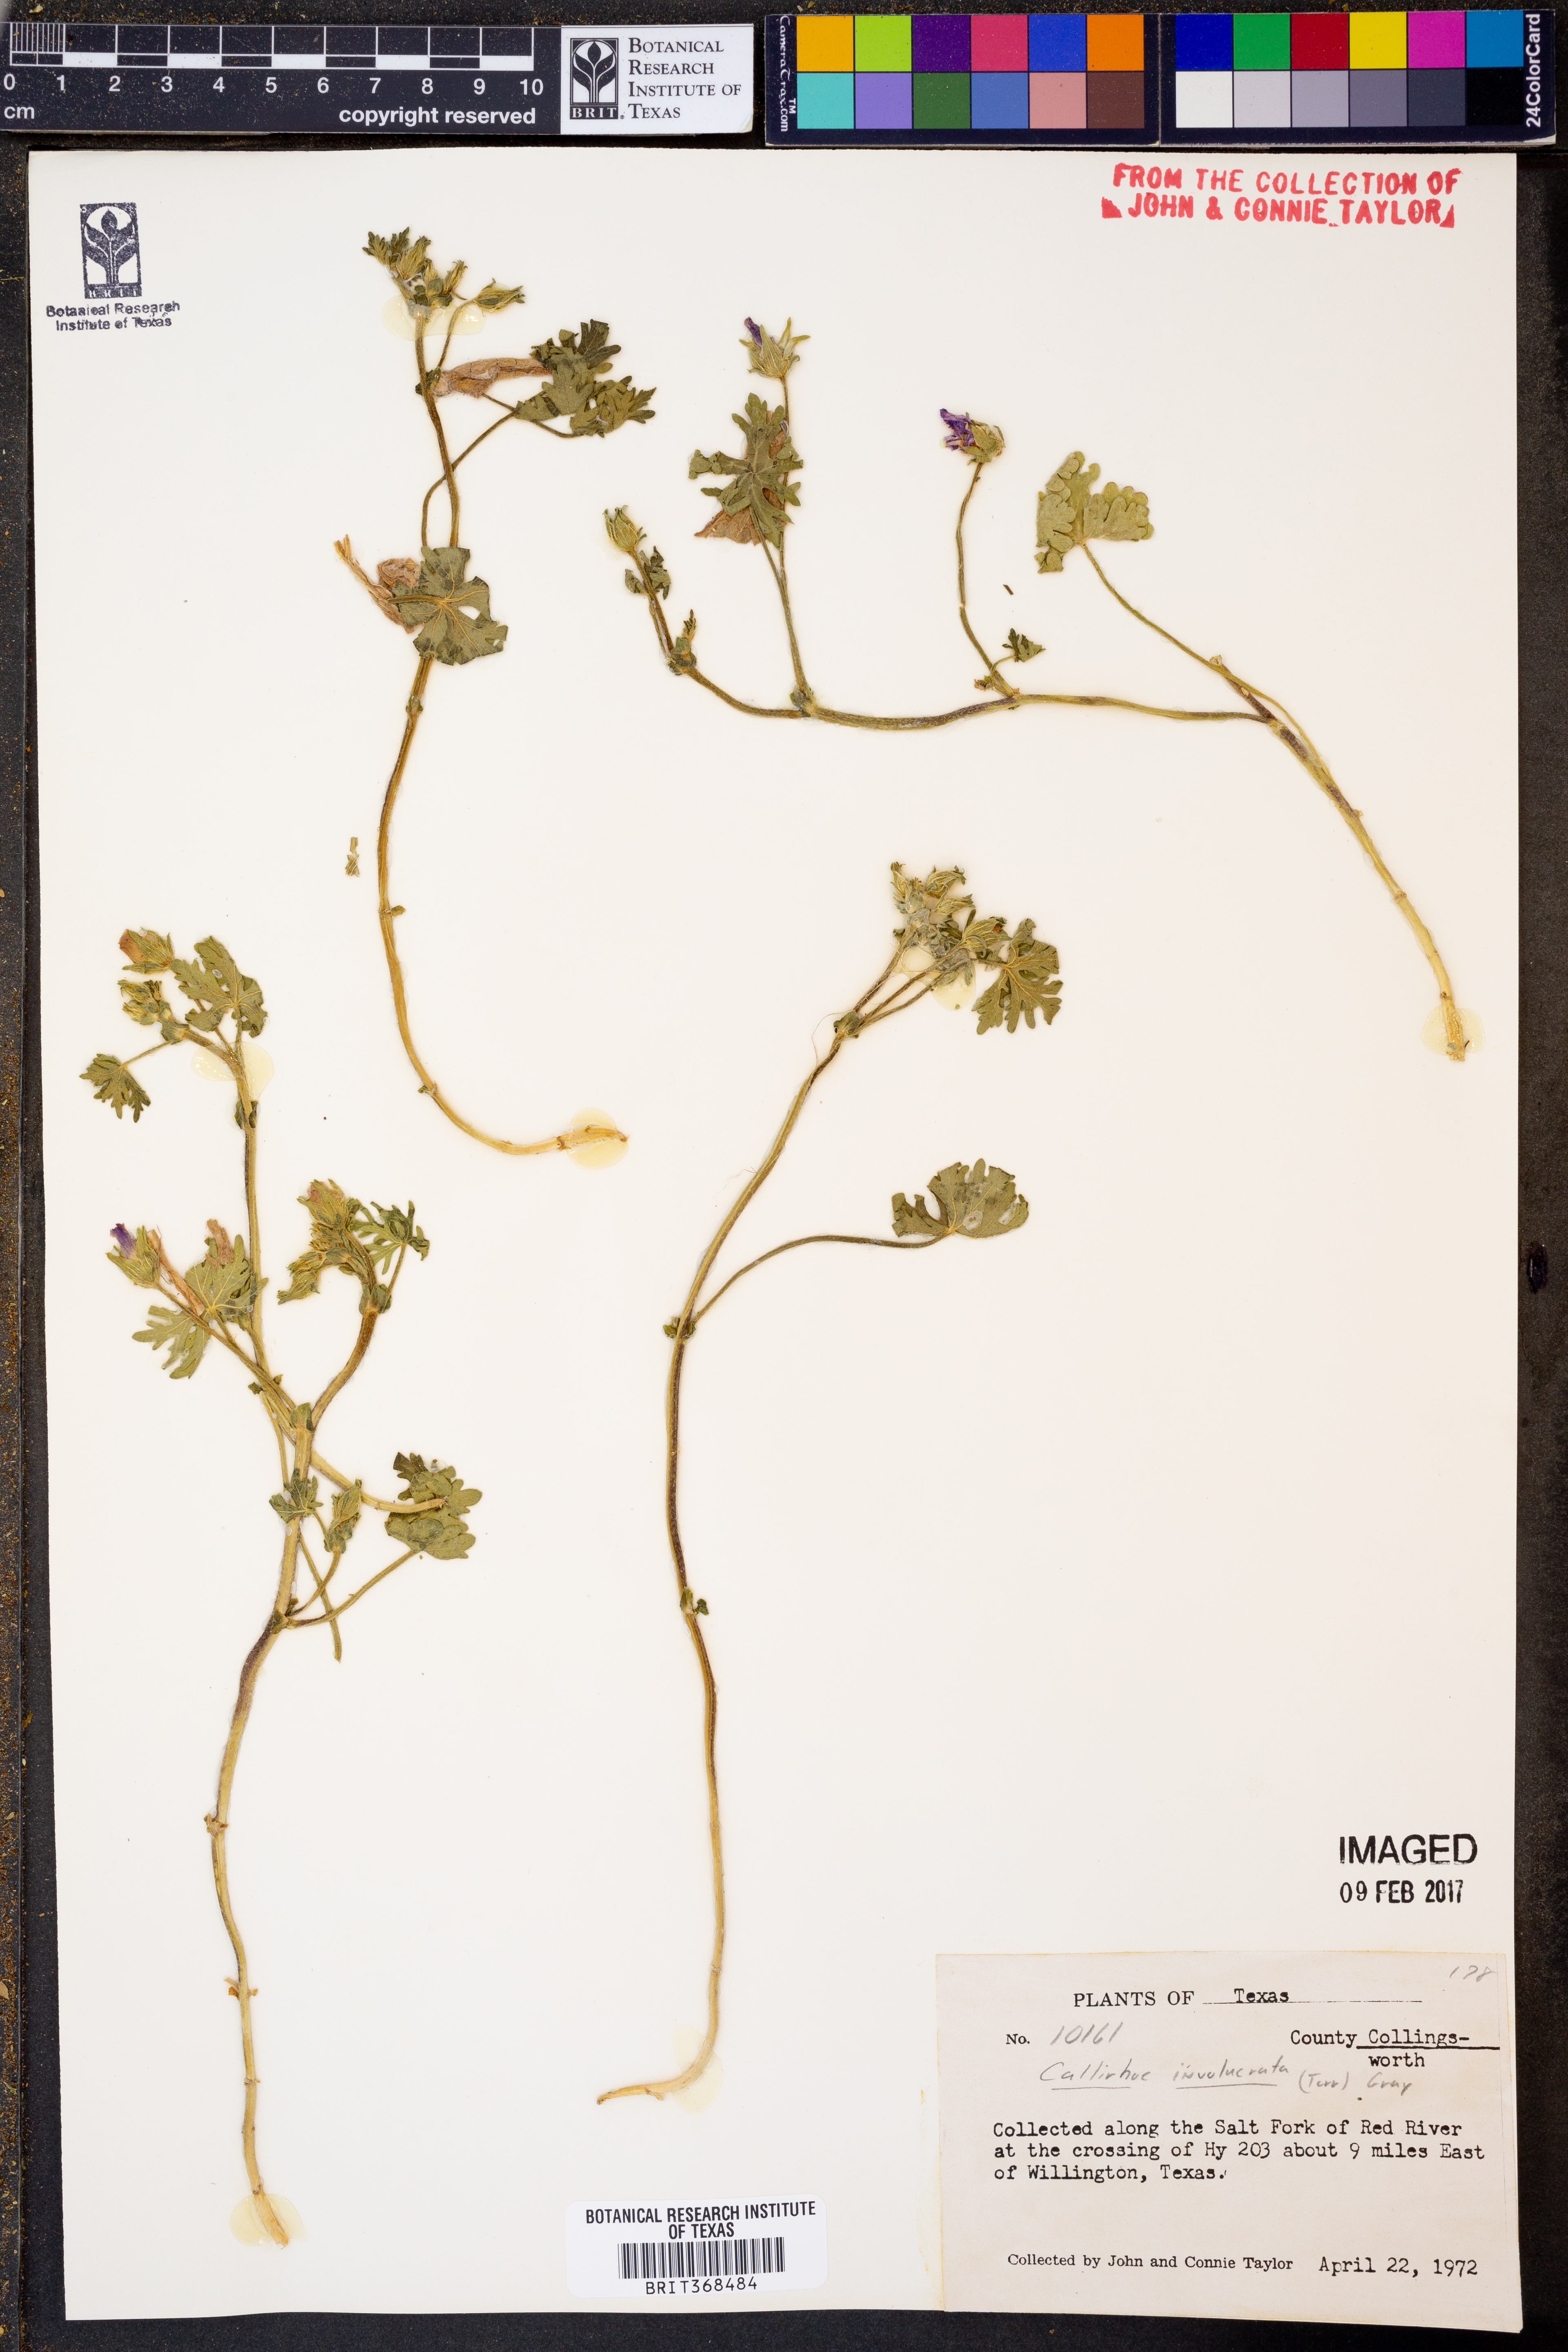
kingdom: Plantae
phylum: Tracheophyta
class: Magnoliopsida
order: Malvales
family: Malvaceae
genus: Callirhoe
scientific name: Callirhoe involucrata
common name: Purple poppy-mallow
